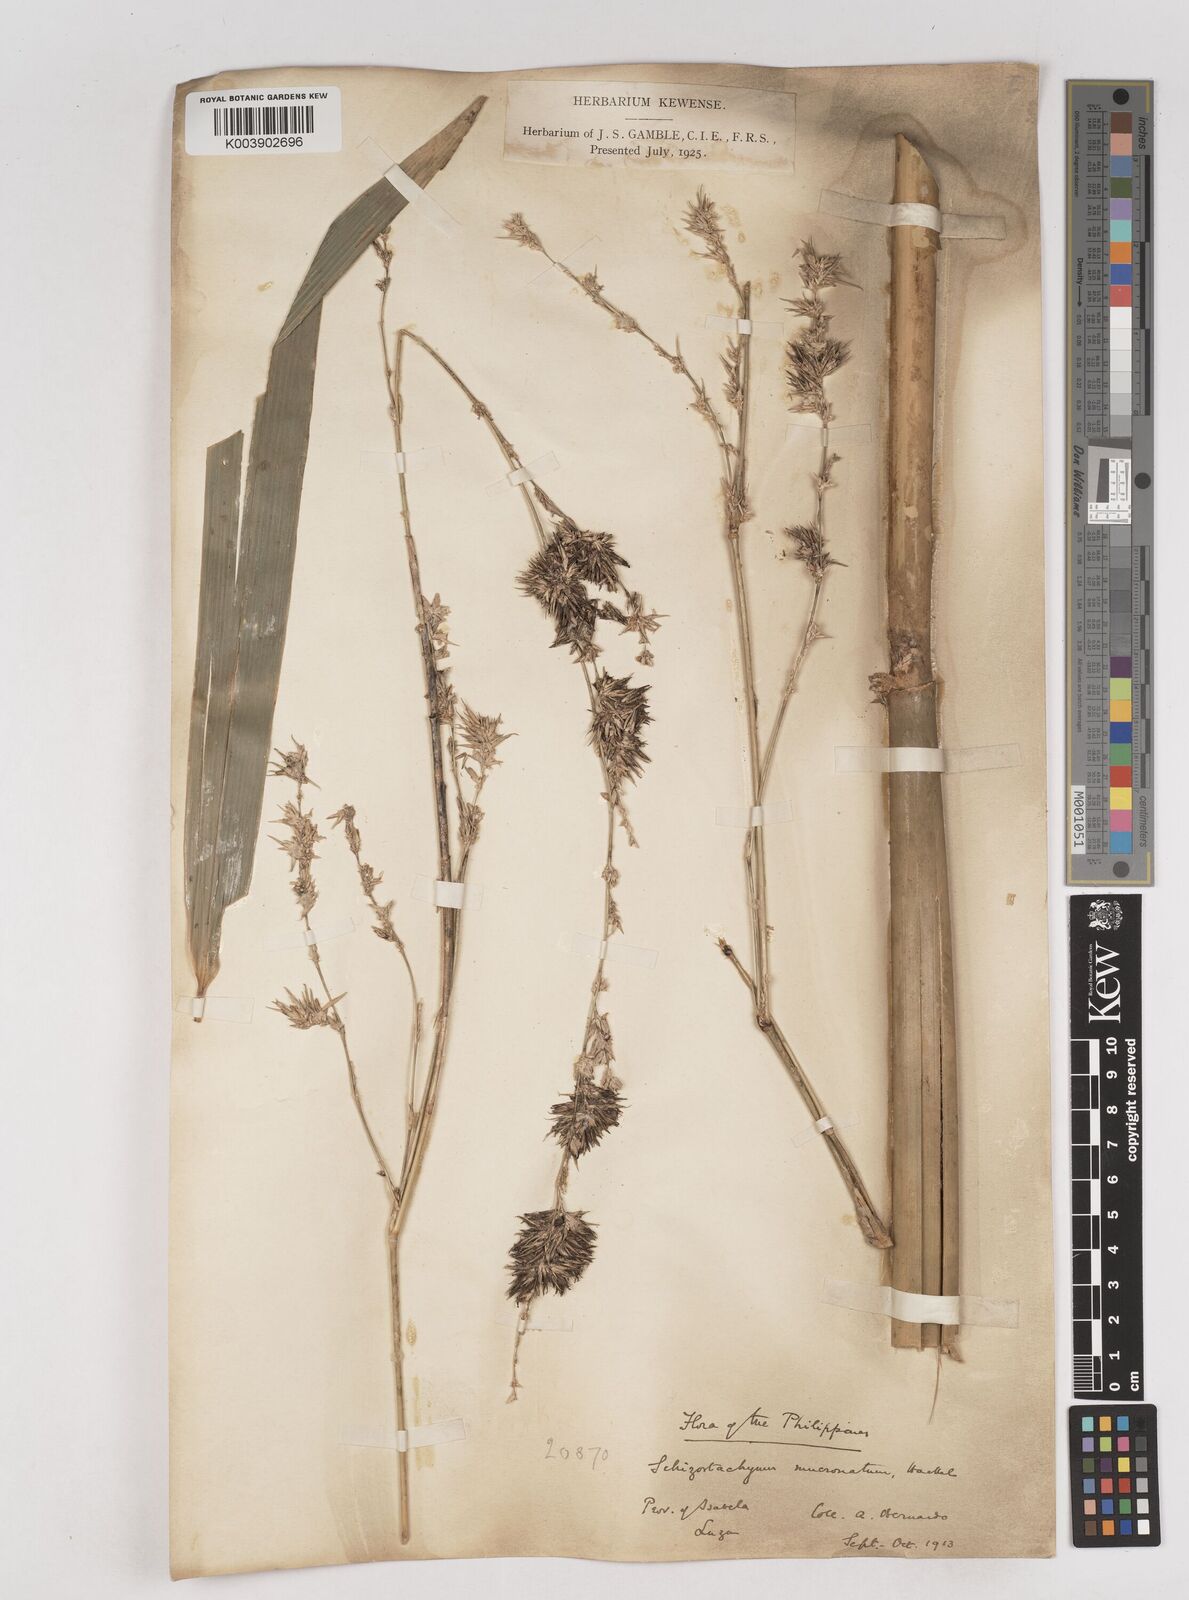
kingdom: Plantae
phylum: Tracheophyta
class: Liliopsida
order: Poales
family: Poaceae
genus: Schizostachyum
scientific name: Schizostachyum lumampao
